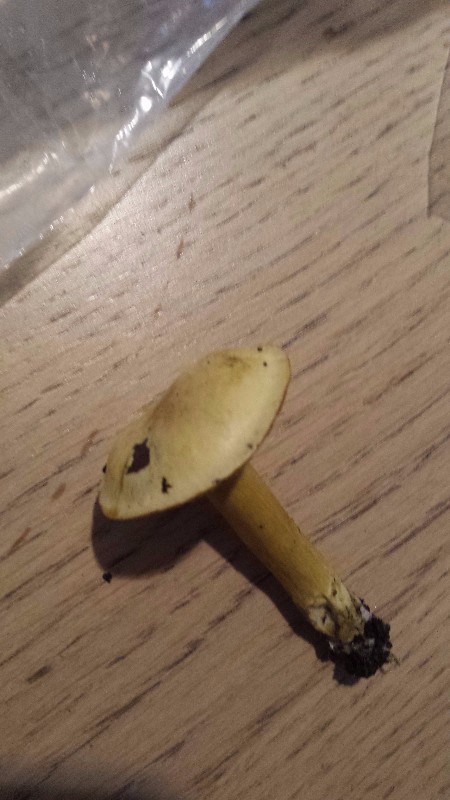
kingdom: Fungi
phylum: Basidiomycota
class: Agaricomycetes
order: Agaricales
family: Tricholomataceae
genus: Tricholoma
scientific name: Tricholoma sulphureum
